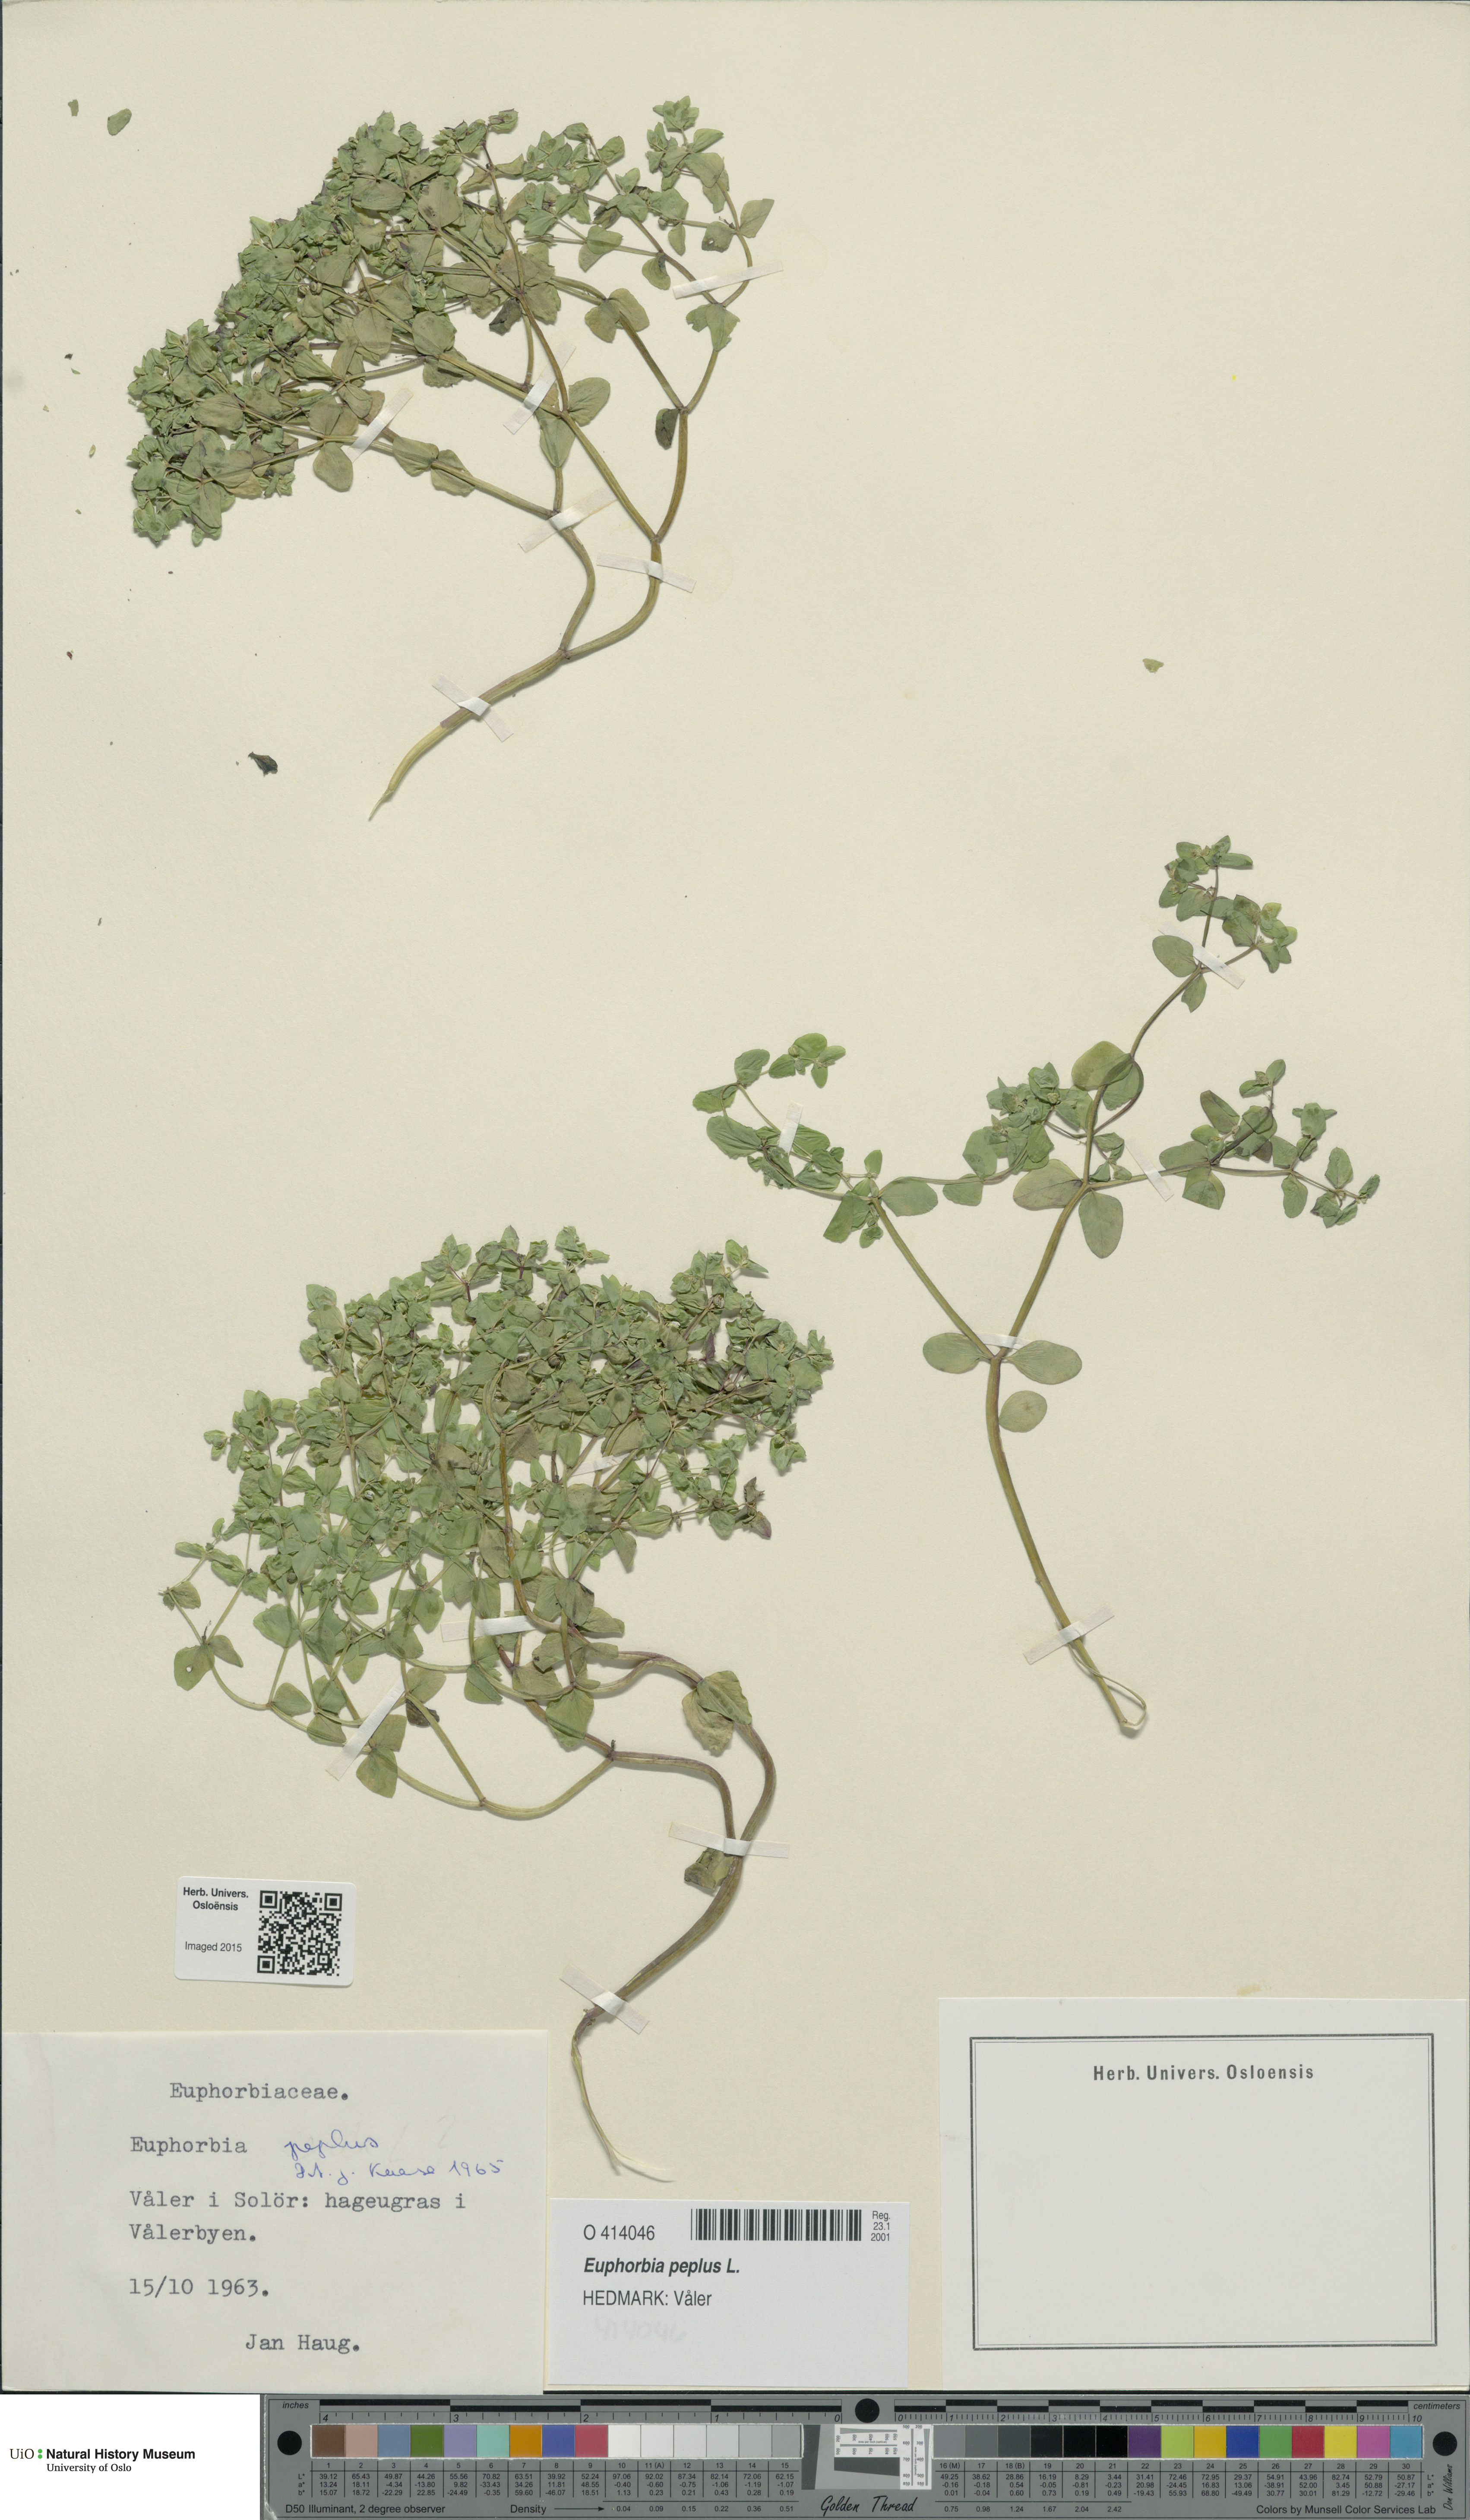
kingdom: Plantae
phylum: Tracheophyta
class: Magnoliopsida
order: Malpighiales
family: Euphorbiaceae
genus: Euphorbia
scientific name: Euphorbia peplus
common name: Petty spurge
